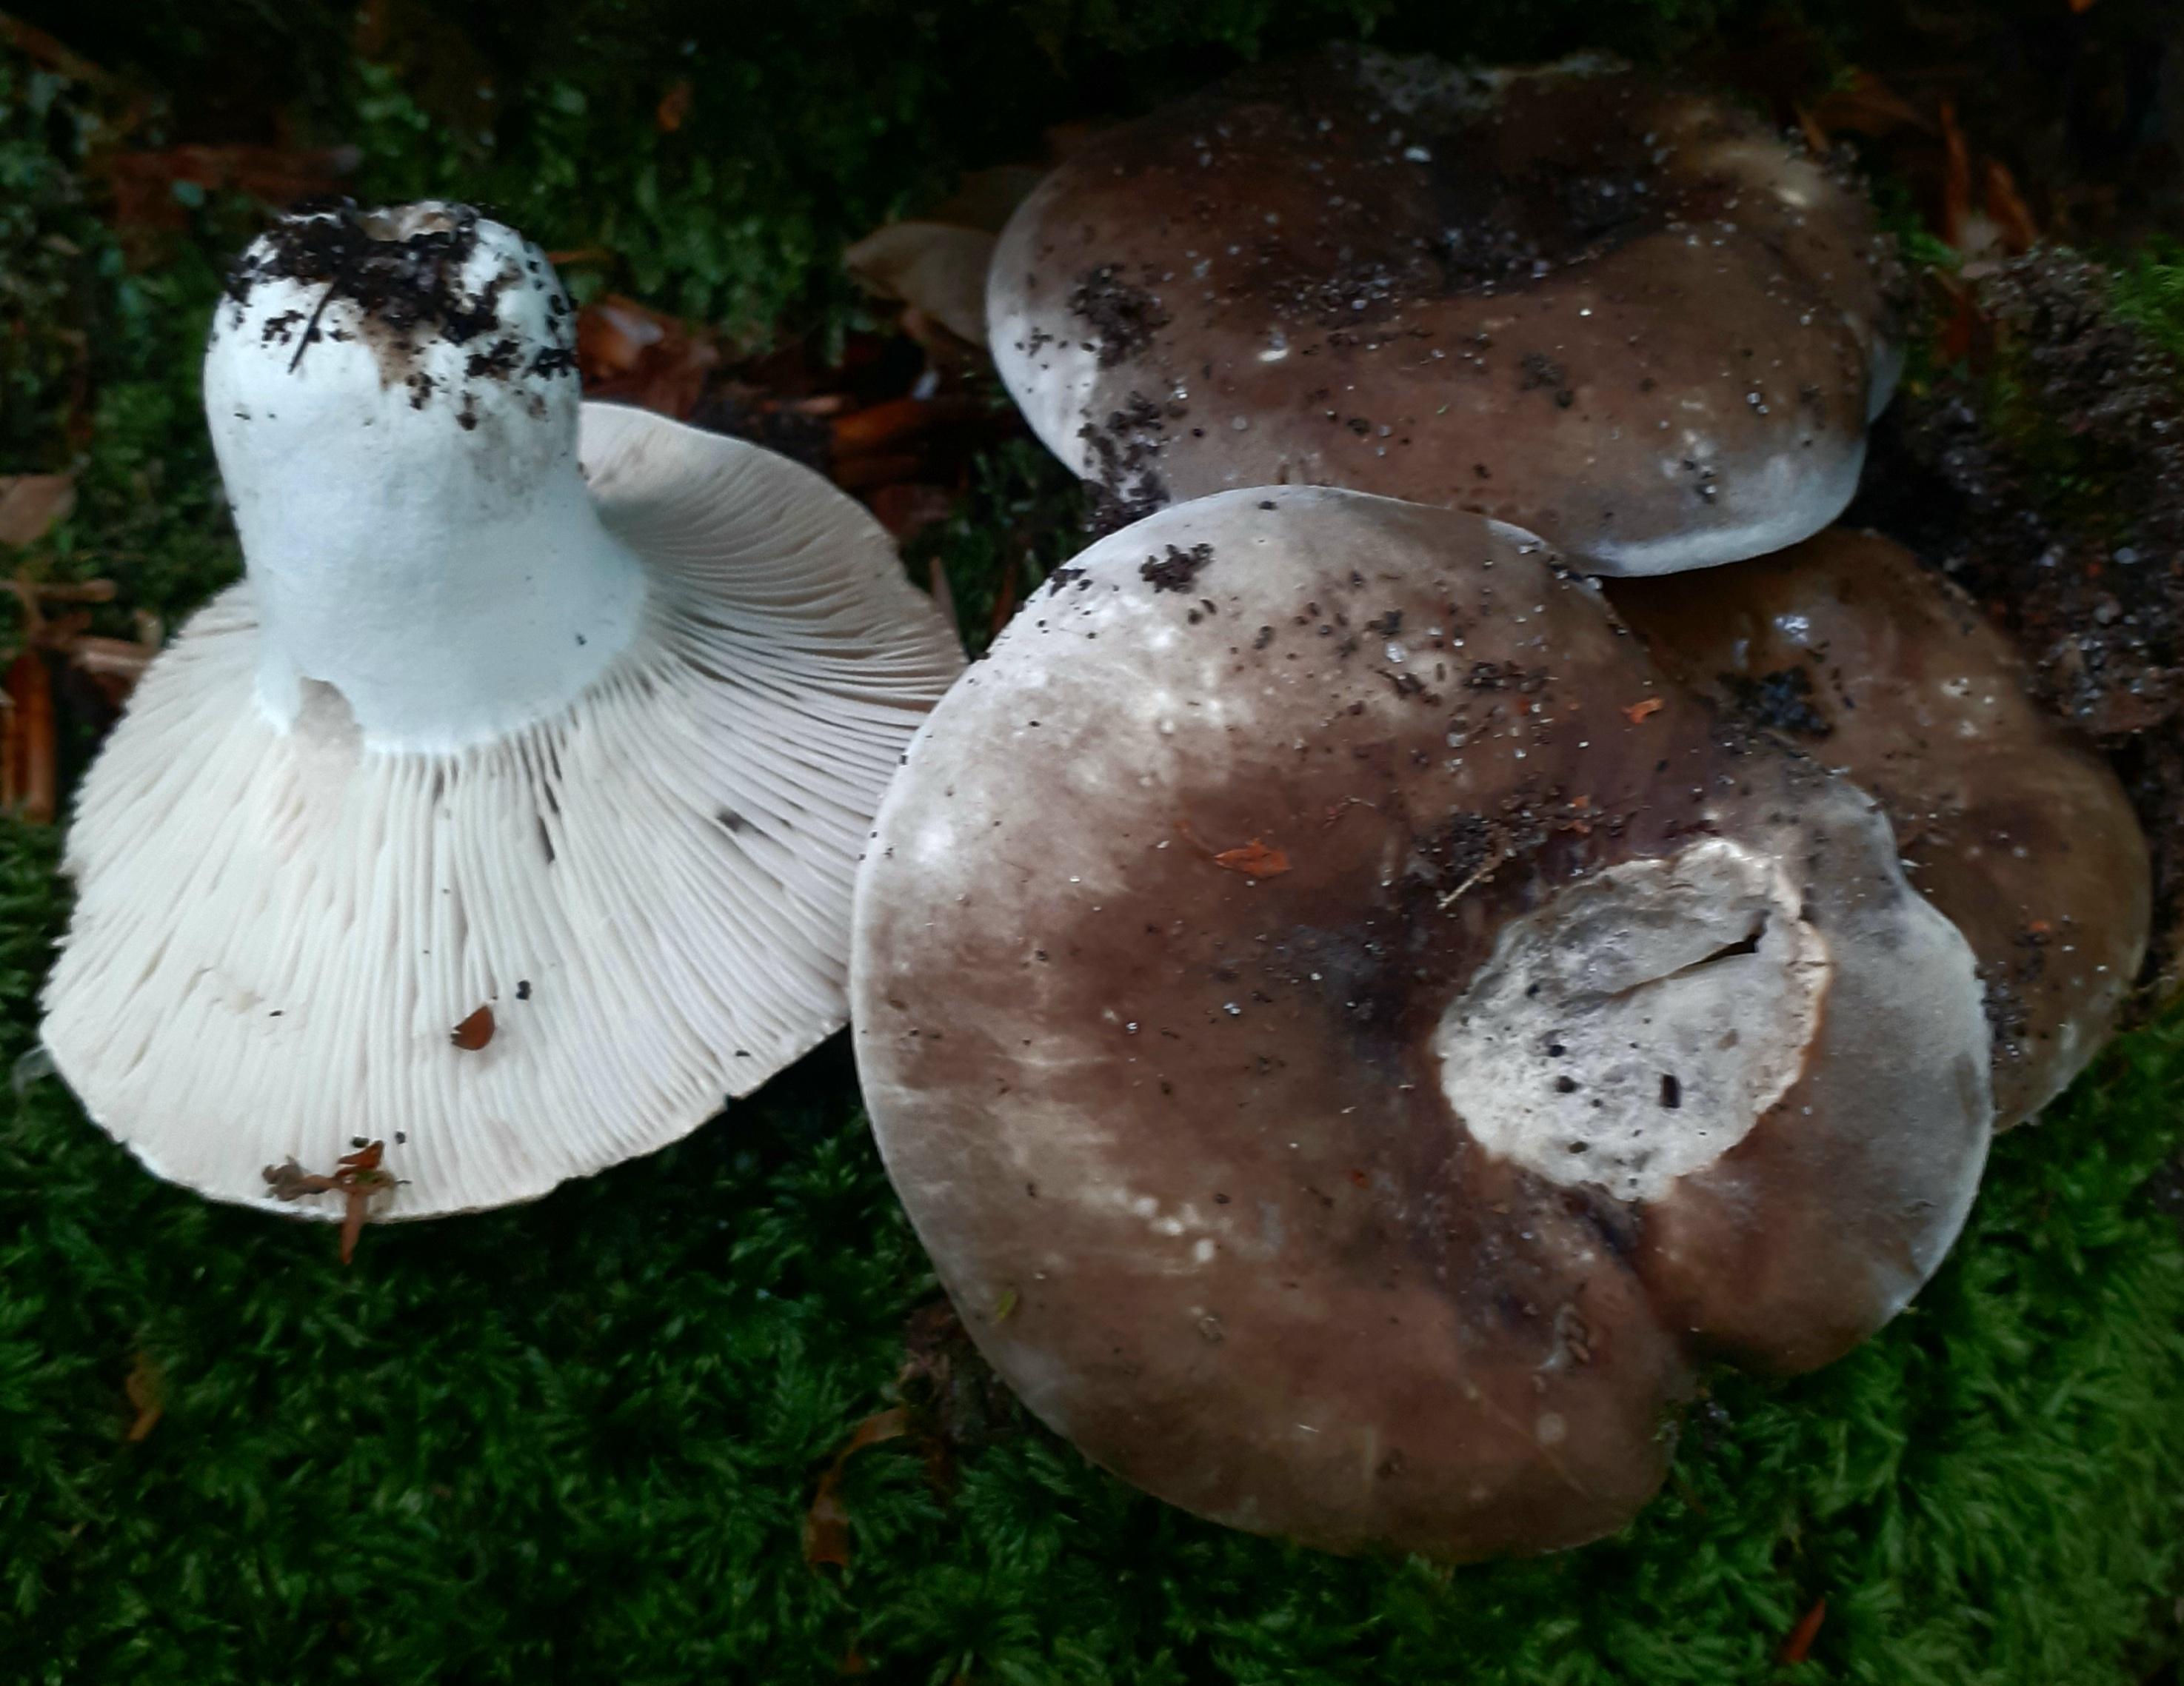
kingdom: Fungi
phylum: Basidiomycota
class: Agaricomycetes
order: Russulales
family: Russulaceae
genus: Russula
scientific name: Russula densifolia
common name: tætbladet skørhat
